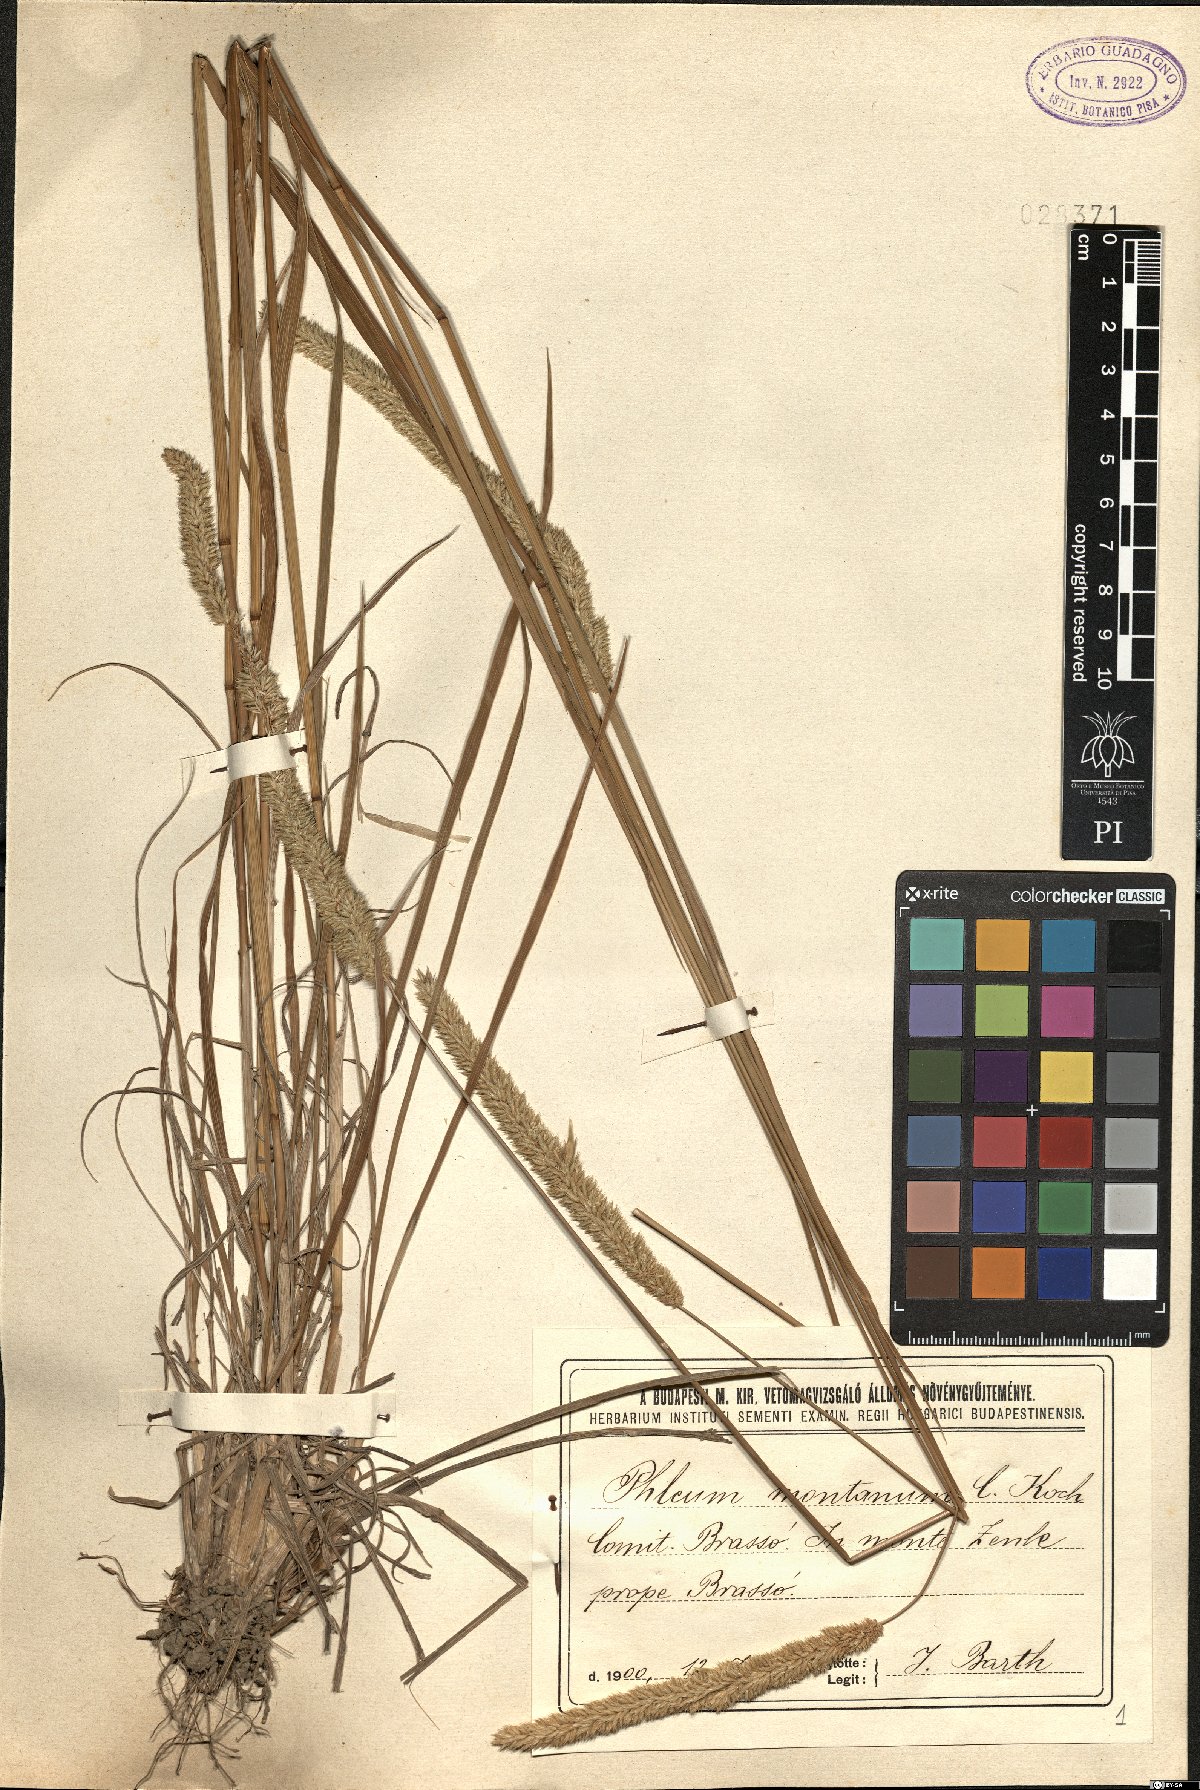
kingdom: Plantae
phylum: Tracheophyta
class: Liliopsida
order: Poales
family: Poaceae
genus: Phleum
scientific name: Phleum montanum
